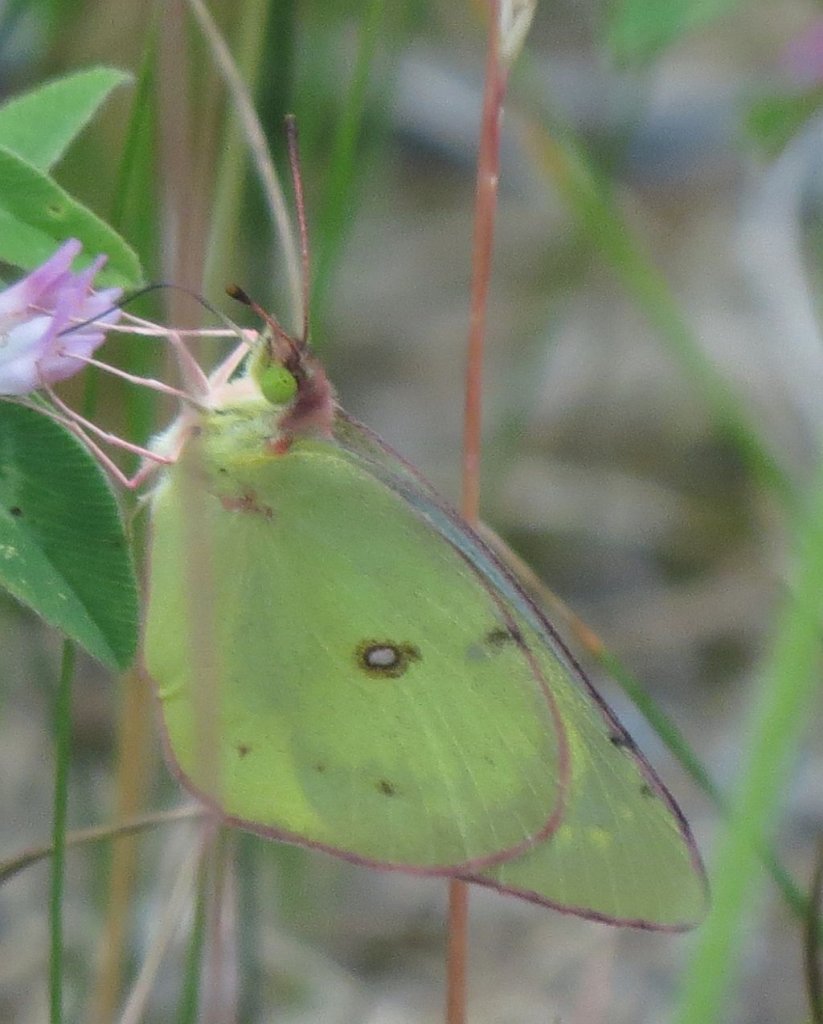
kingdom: Animalia
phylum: Arthropoda
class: Insecta
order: Lepidoptera
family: Pieridae
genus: Colias
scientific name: Colias philodice
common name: Clouded Sulphur
